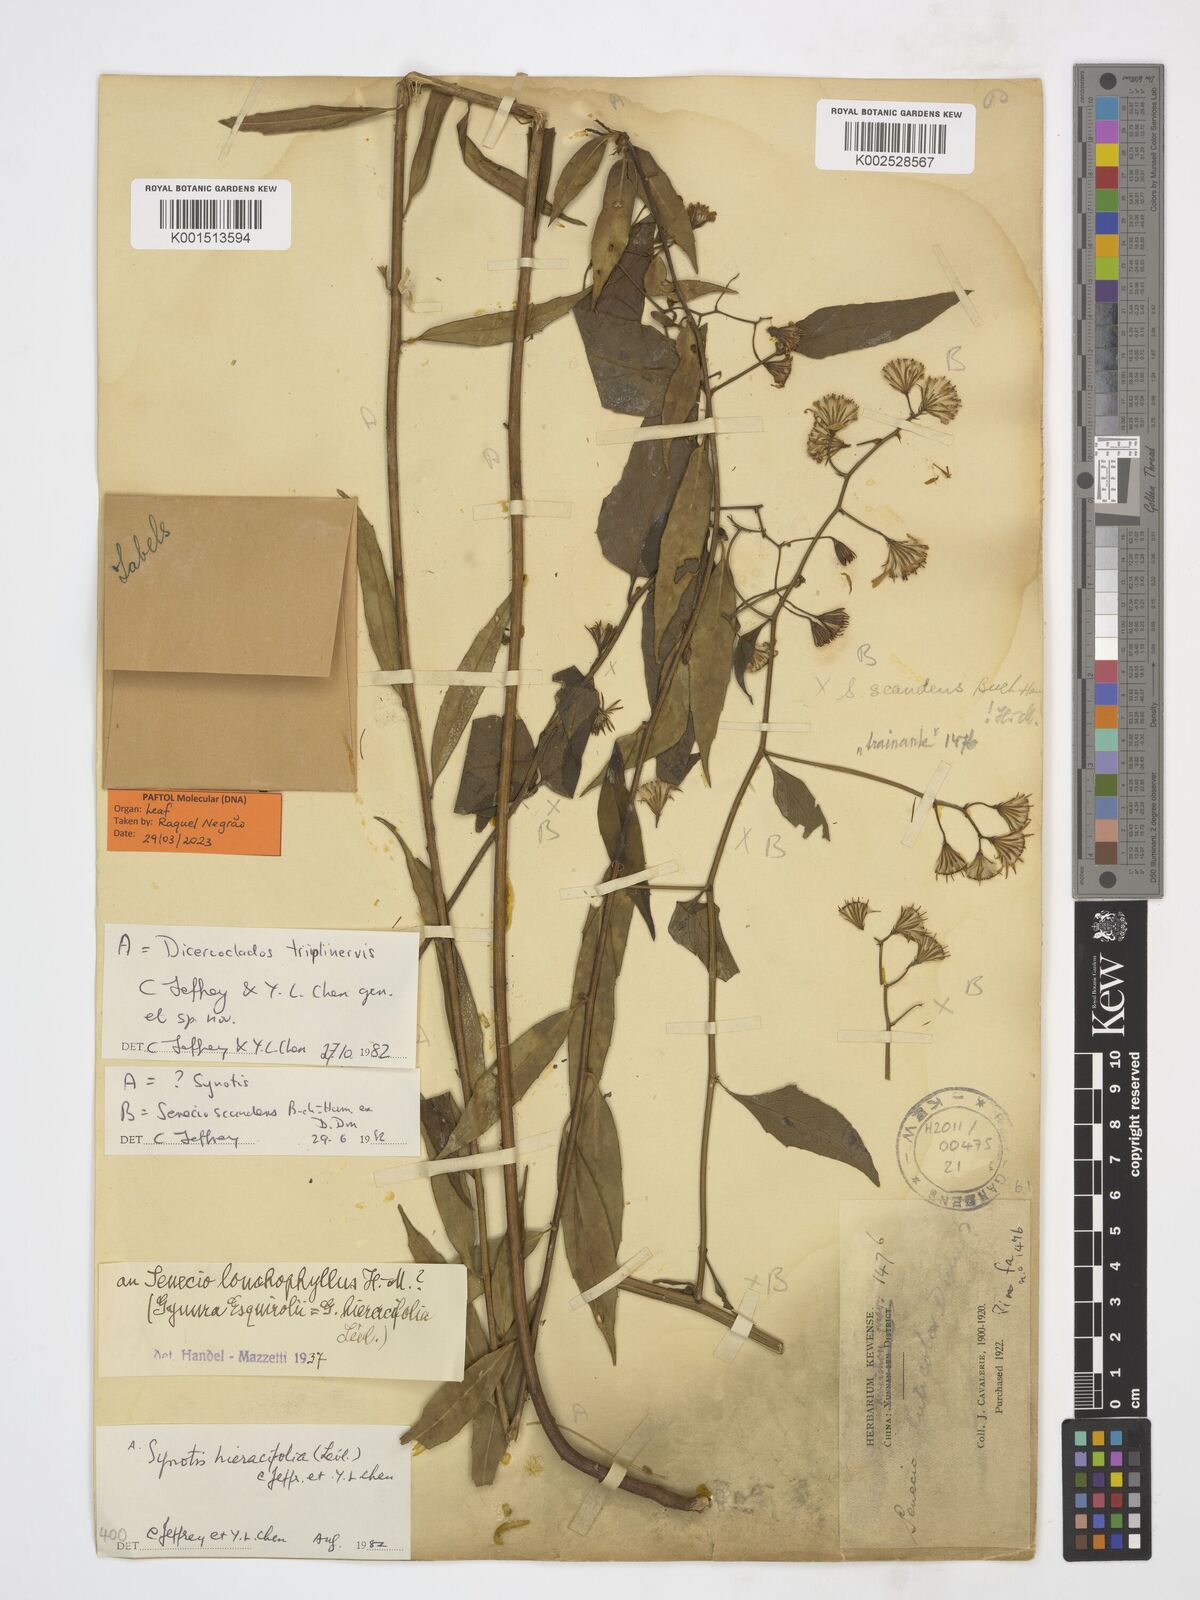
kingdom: Plantae
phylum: Tracheophyta
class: Magnoliopsida
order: Asterales
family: Asteraceae
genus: Dicercoclados
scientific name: Dicercoclados triplinervis
